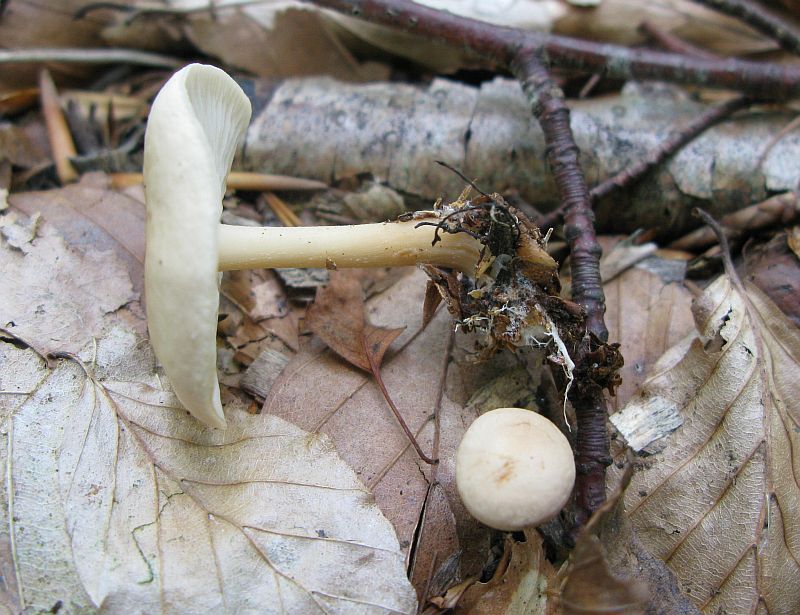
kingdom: Fungi
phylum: Basidiomycota
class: Agaricomycetes
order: Agaricales
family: Omphalotaceae
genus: Gymnopus
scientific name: Gymnopus dryophilus
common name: løv-fladhat
